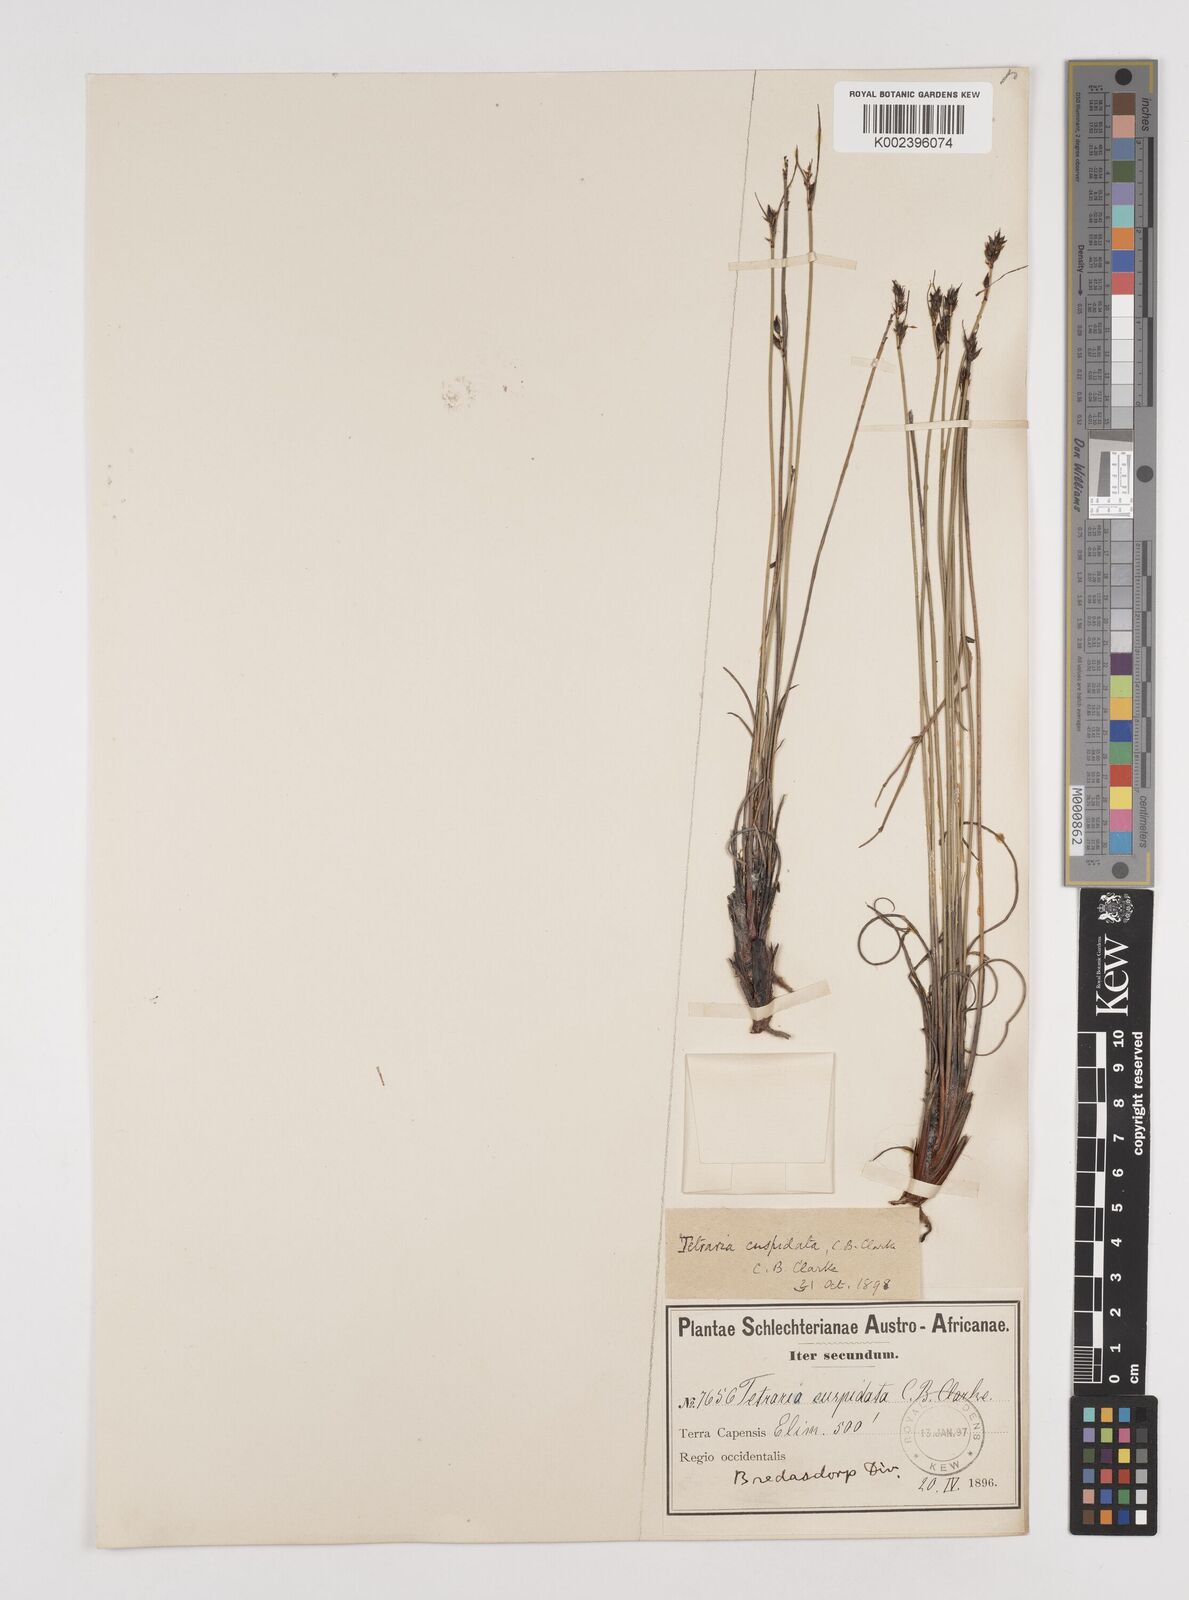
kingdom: Plantae
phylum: Tracheophyta
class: Liliopsida
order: Poales
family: Cyperaceae
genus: Schoenus
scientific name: Schoenus cuspidatus
